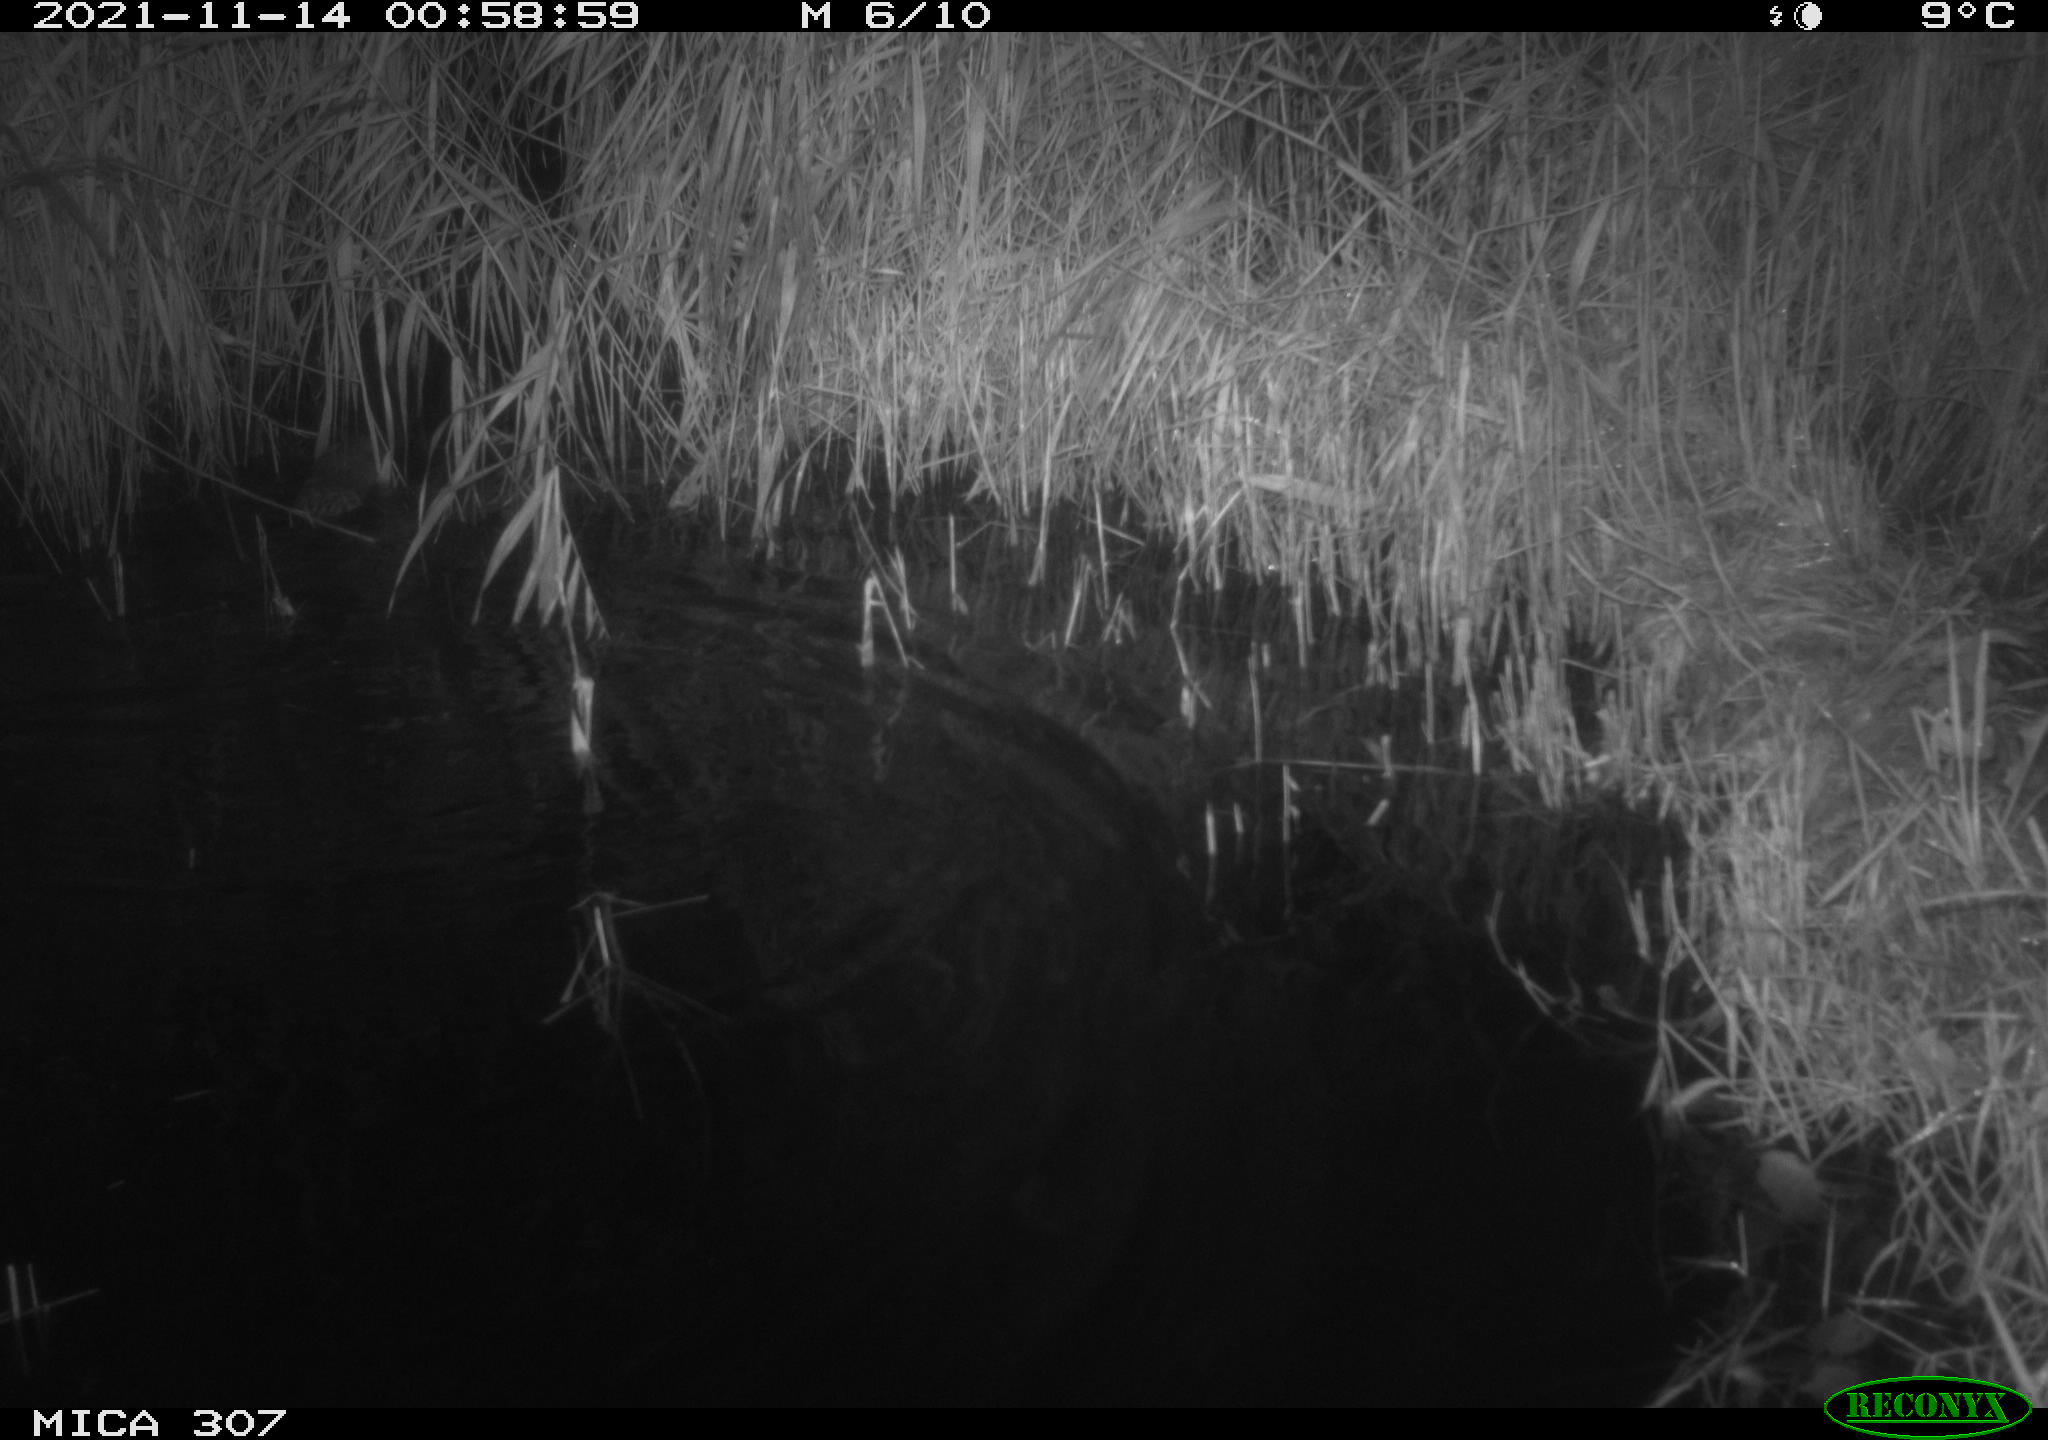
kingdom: Animalia
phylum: Chordata
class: Mammalia
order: Rodentia
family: Cricetidae
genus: Ondatra
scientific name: Ondatra zibethicus
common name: Muskrat
